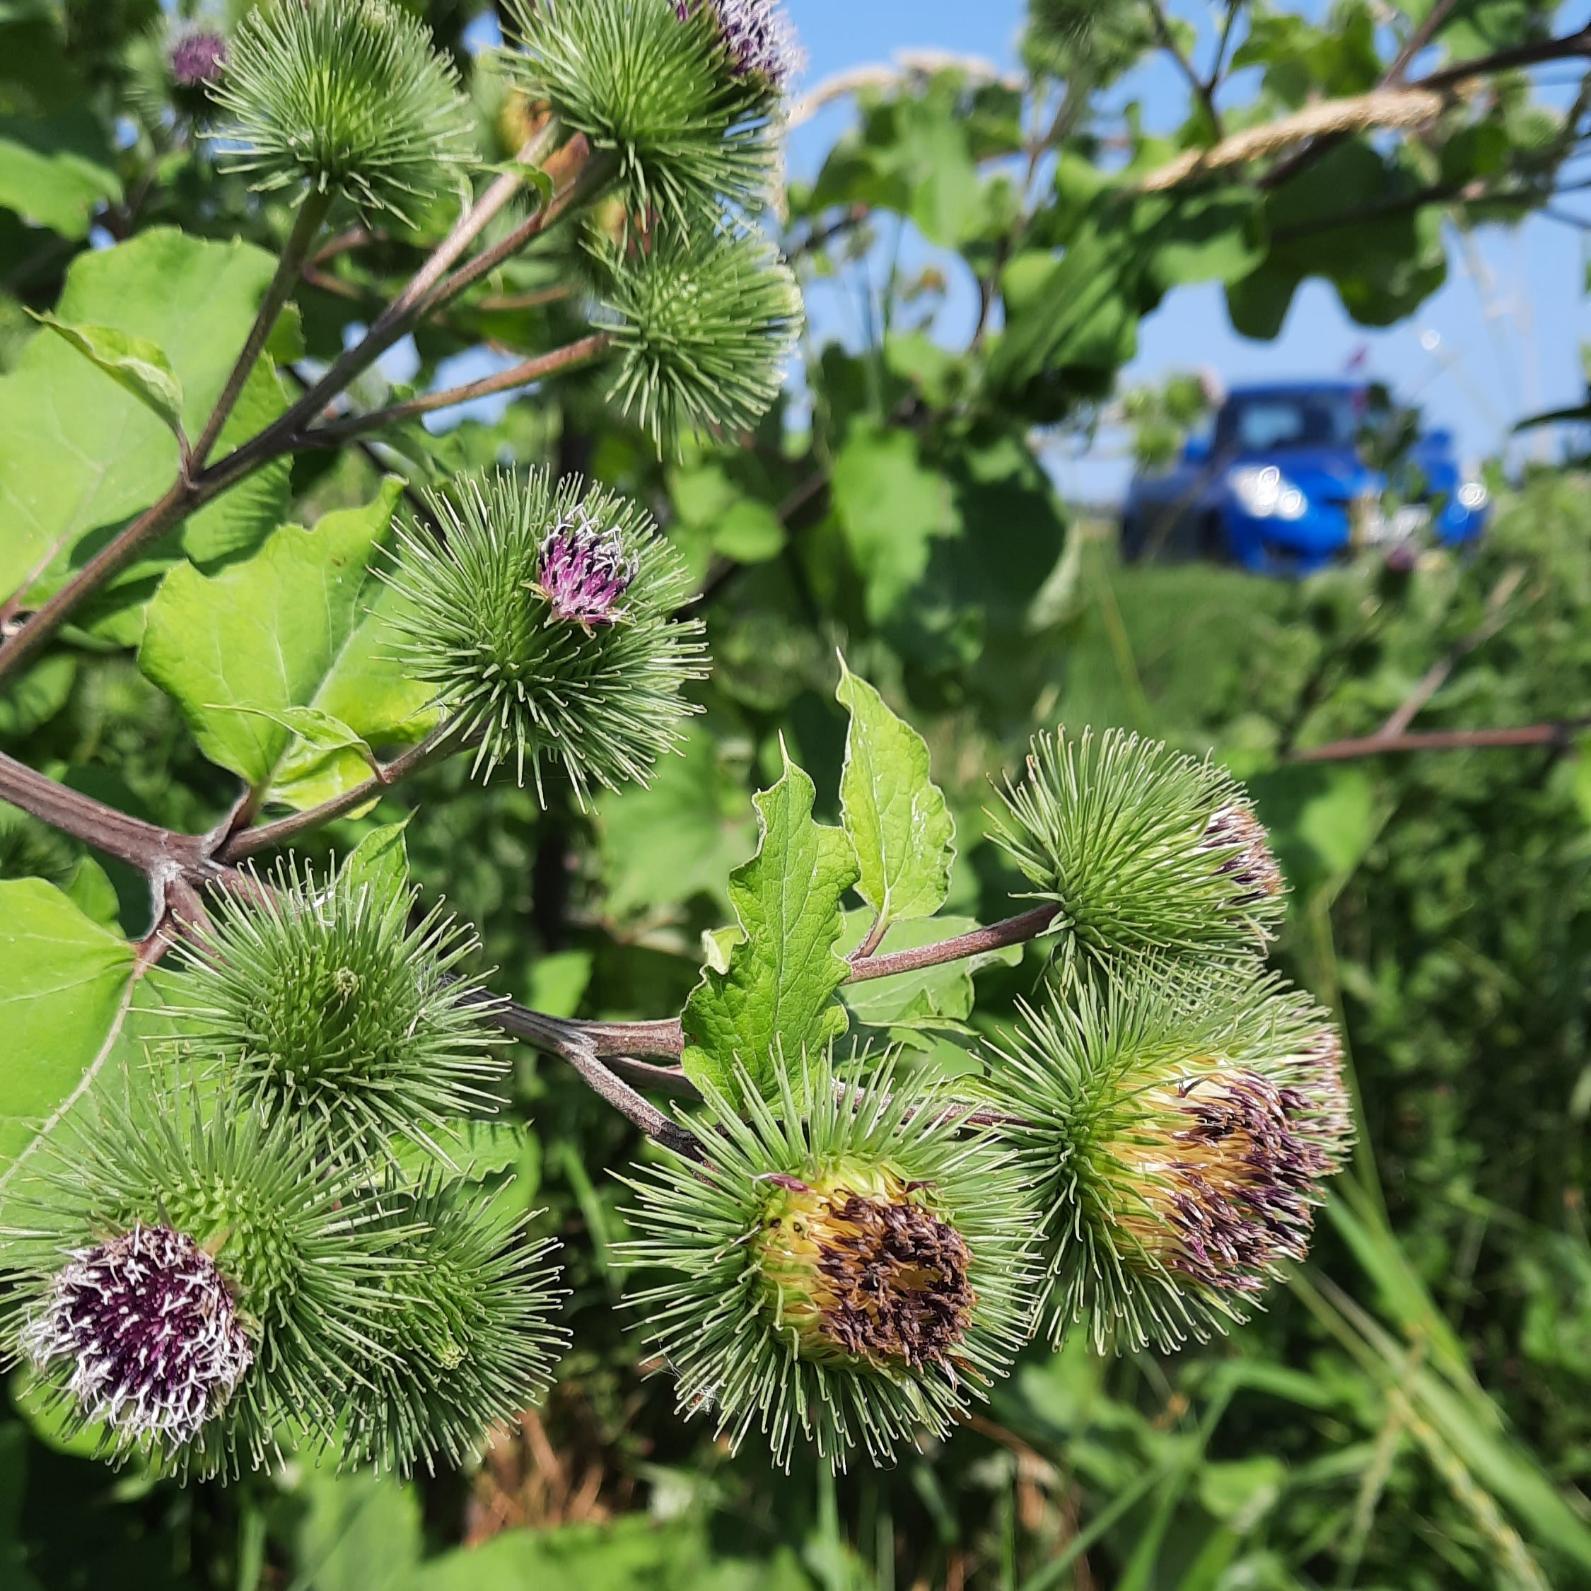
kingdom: Plantae
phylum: Tracheophyta
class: Magnoliopsida
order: Asterales
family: Asteraceae
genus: Arctium
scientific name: Arctium lappa
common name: Glat burre
